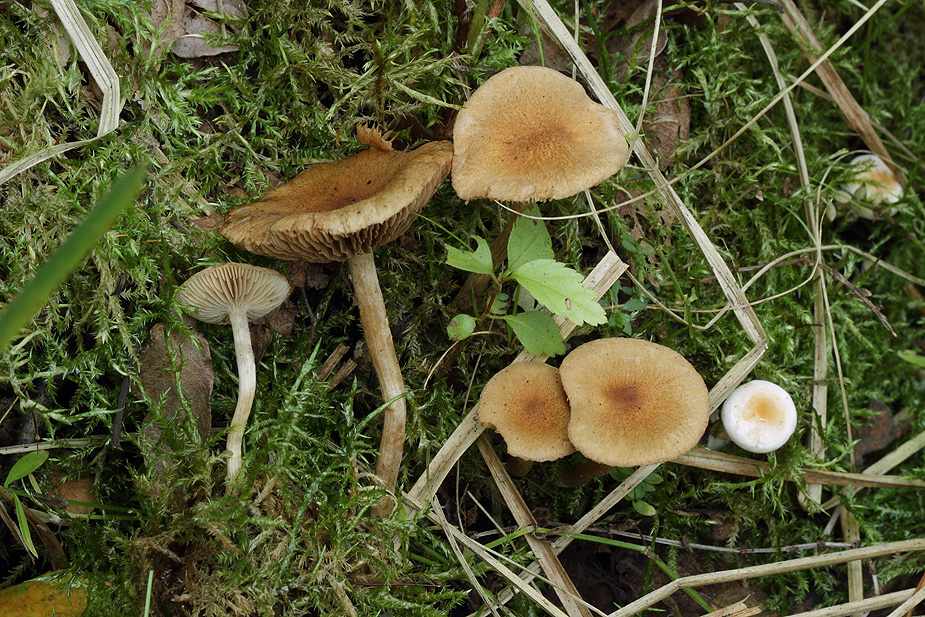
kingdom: Fungi
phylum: Basidiomycota
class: Agaricomycetes
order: Agaricales
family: Inocybaceae
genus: Inocybe
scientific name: Inocybe dulcamara
